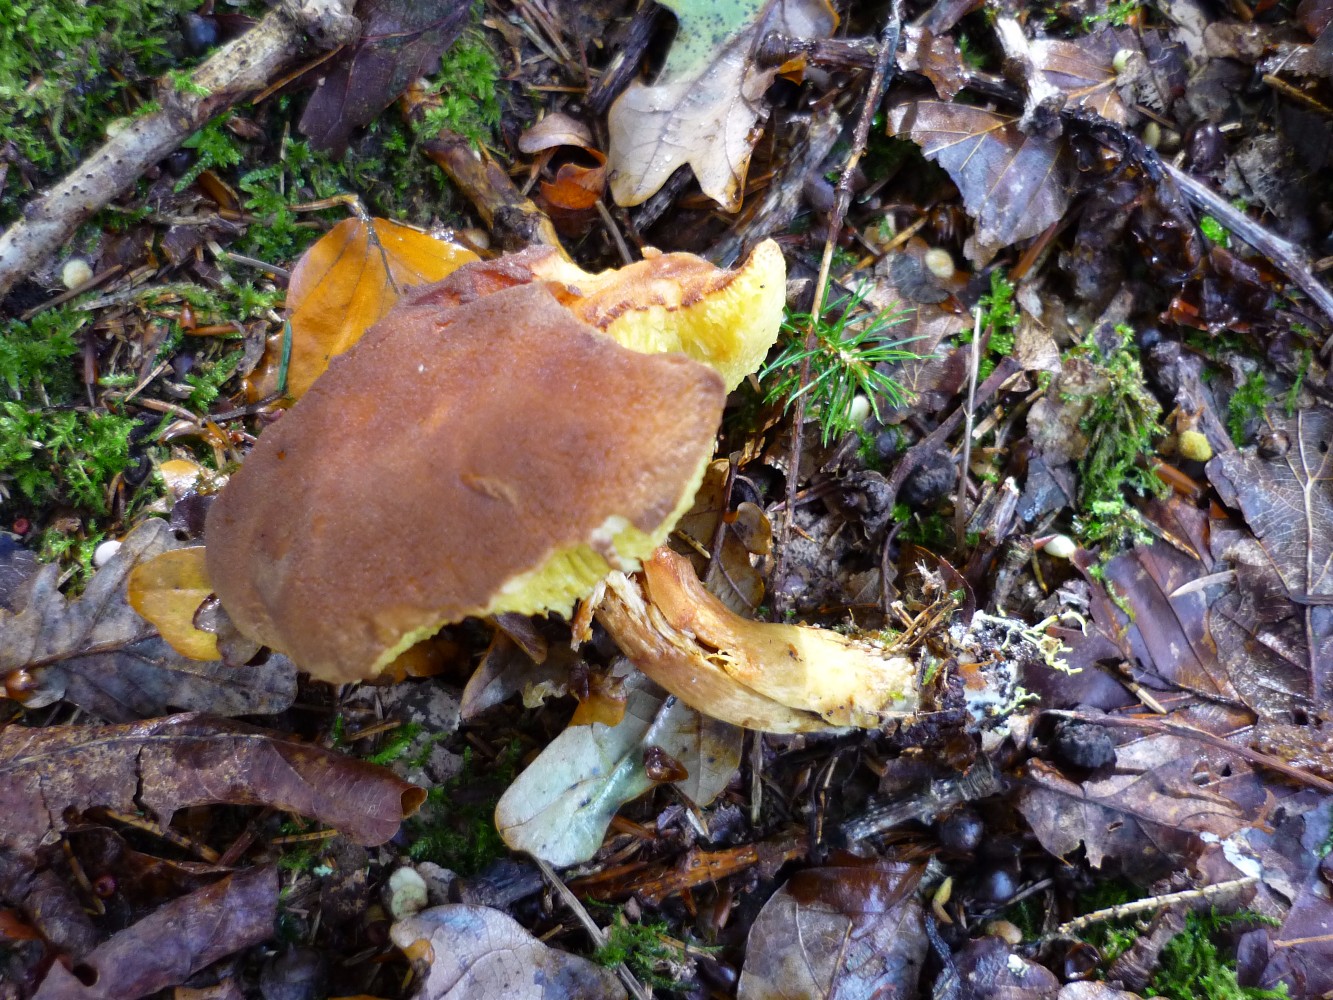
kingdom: Fungi
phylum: Basidiomycota
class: Agaricomycetes
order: Boletales
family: Boletaceae
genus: Xerocomus
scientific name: Xerocomus ferrugineus
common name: vaskeskinds-rørhat
